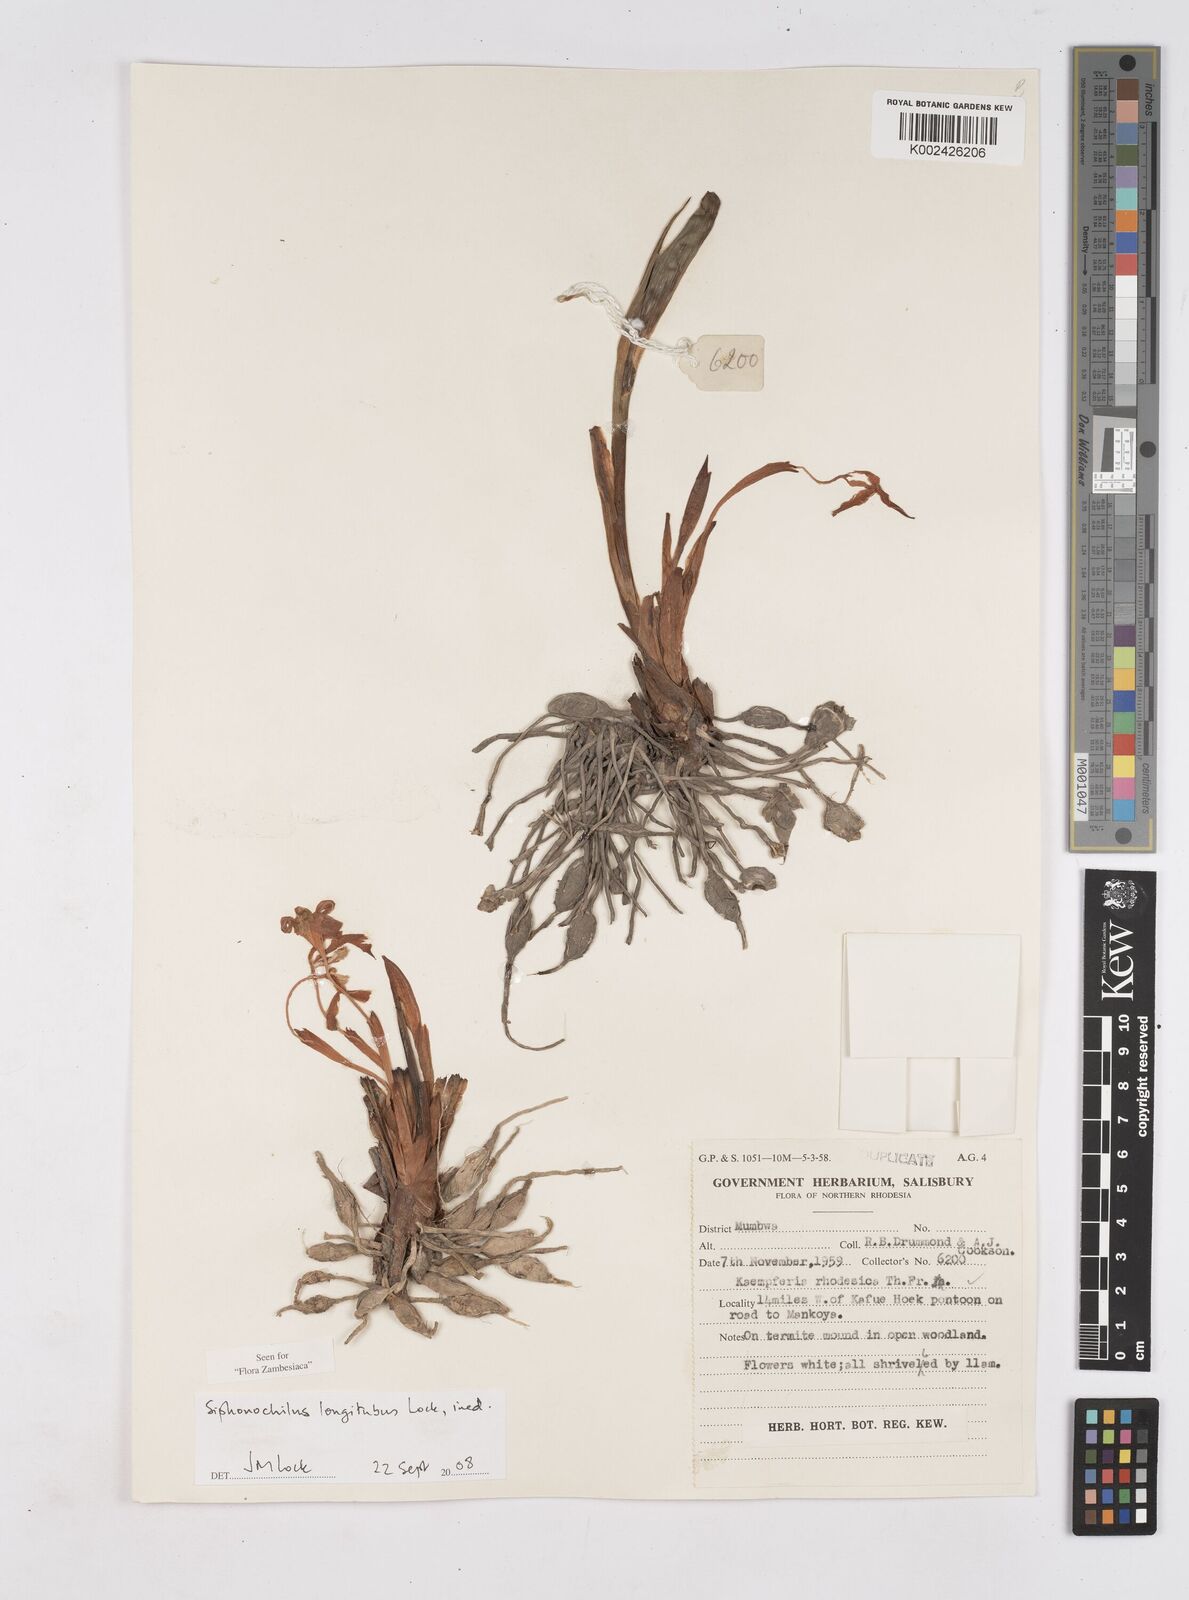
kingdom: Plantae
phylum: Tracheophyta
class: Liliopsida
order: Zingiberales
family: Zingiberaceae
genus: Siphonochilus
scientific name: Siphonochilus longitubus
